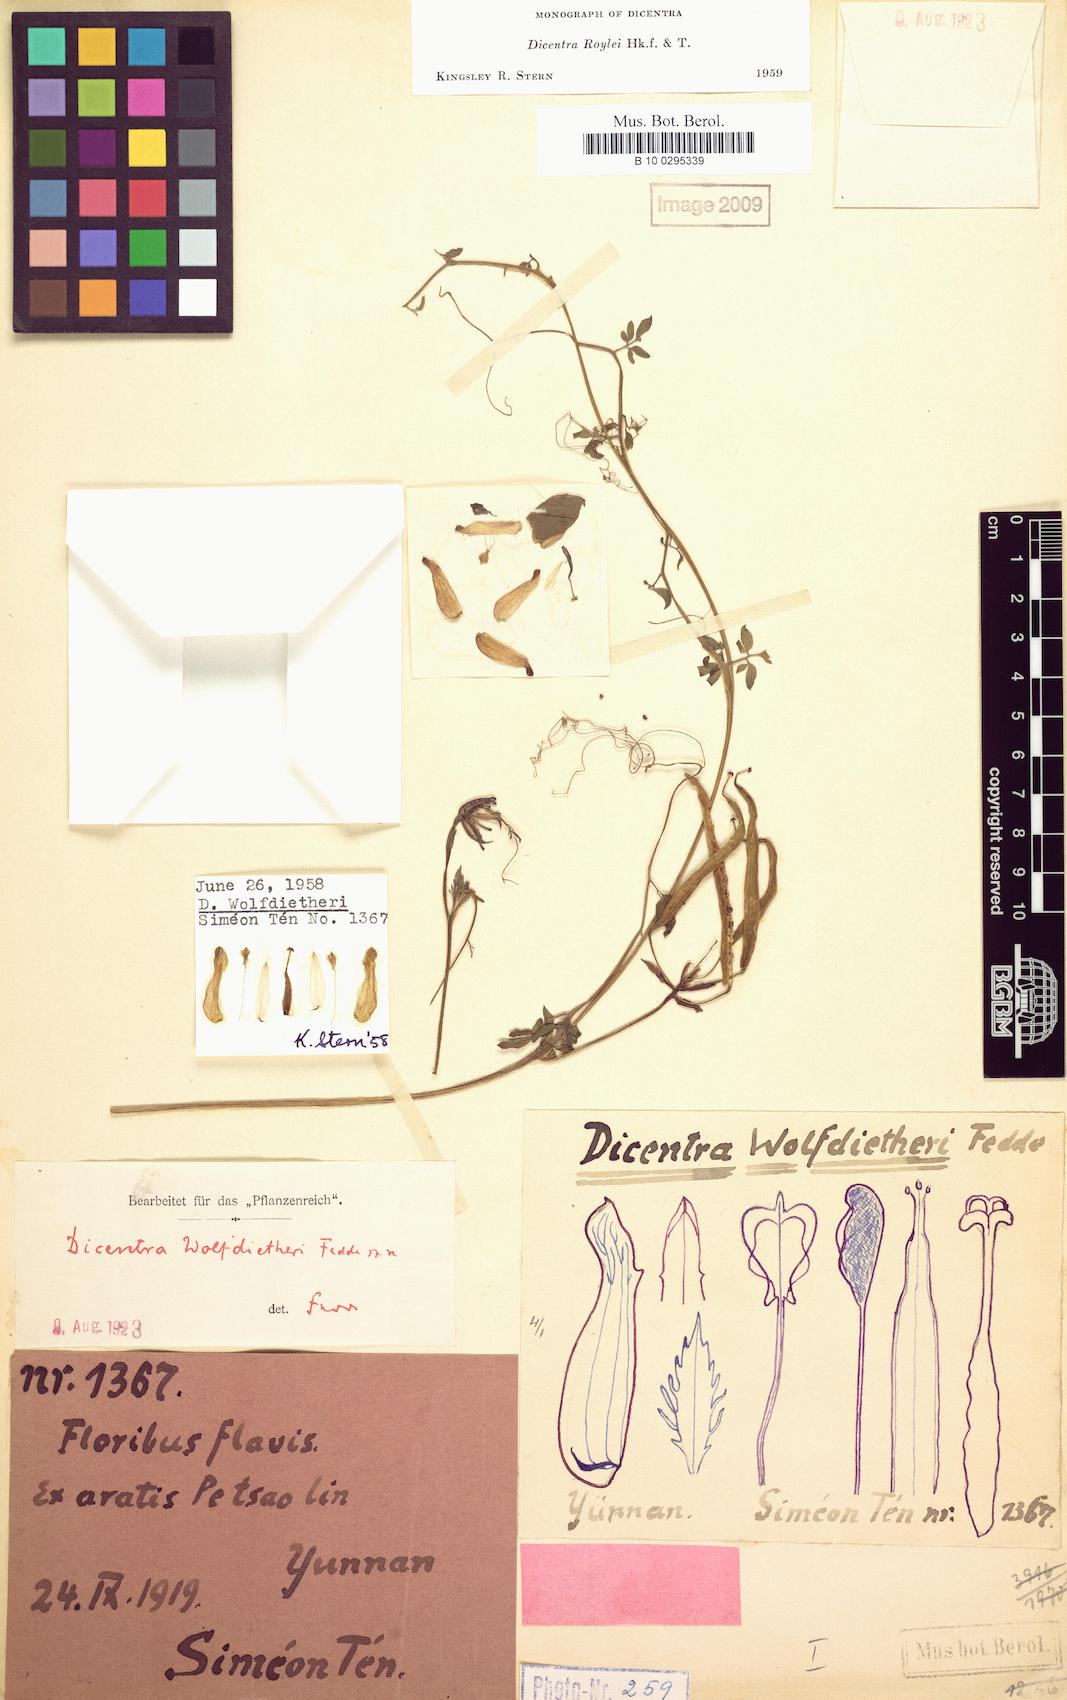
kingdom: Plantae
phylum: Tracheophyta
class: Magnoliopsida
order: Ranunculales
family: Papaveraceae
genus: Dactylicapnos
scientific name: Dactylicapnos roylei
